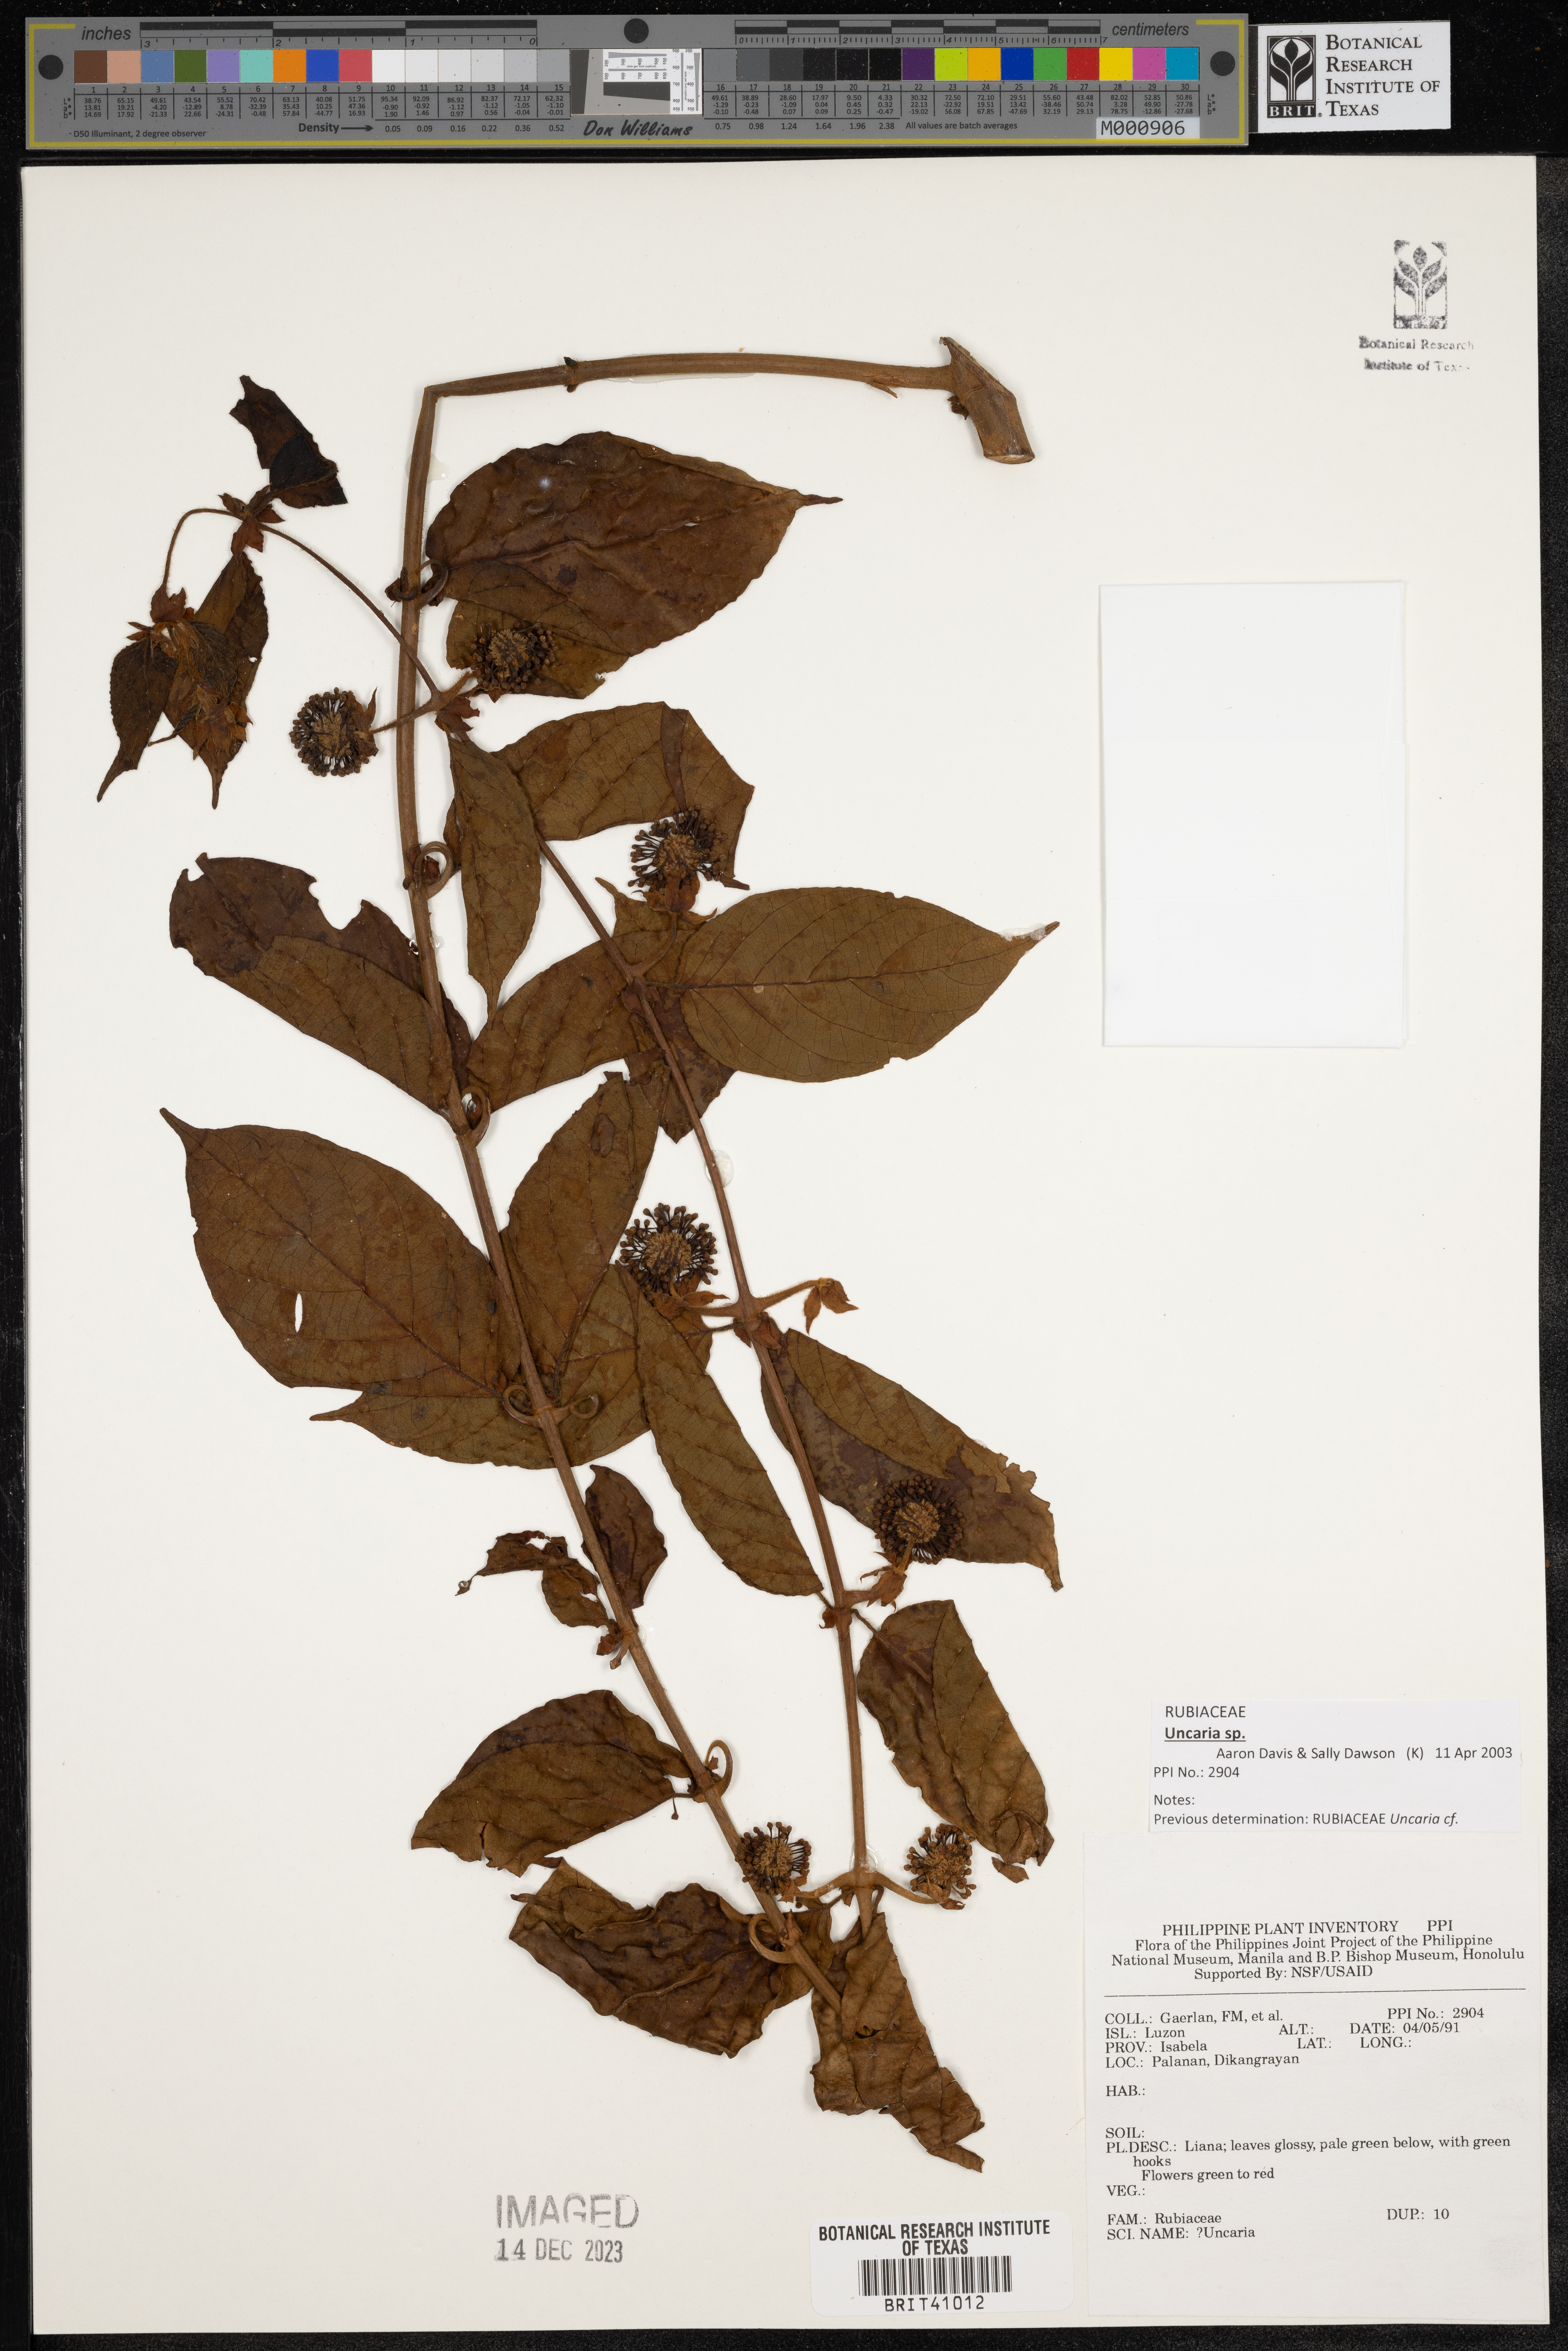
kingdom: Plantae
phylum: Tracheophyta
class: Magnoliopsida
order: Gentianales
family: Rubiaceae
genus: Uncaria
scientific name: Uncaria
